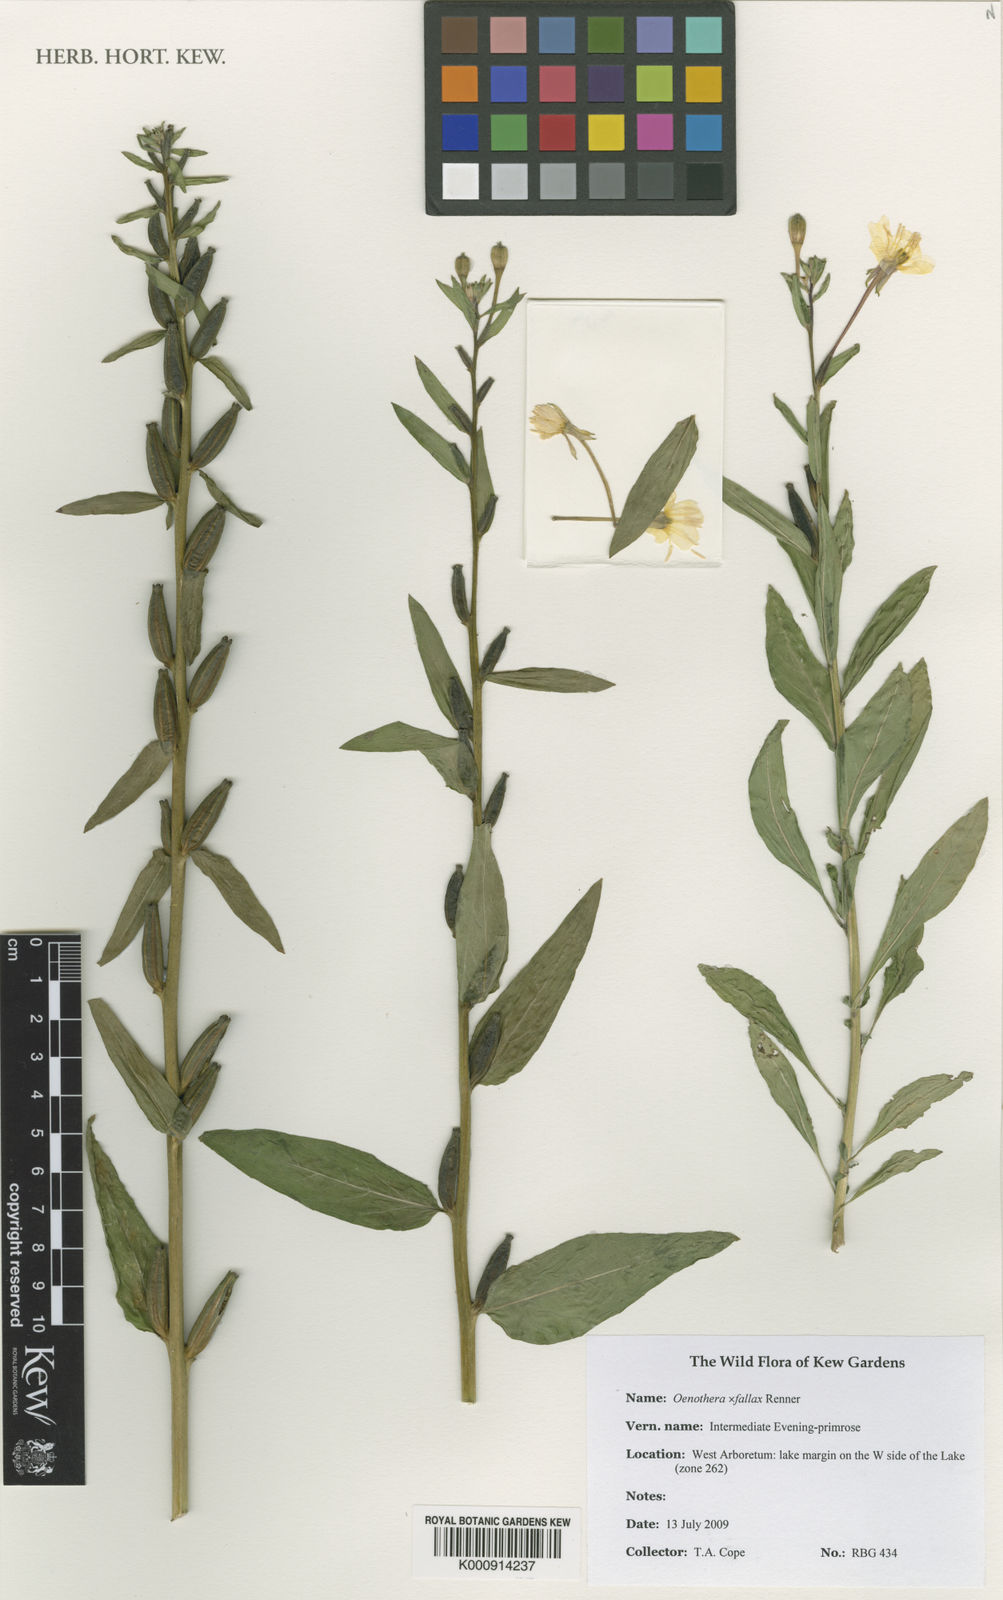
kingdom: Plantae
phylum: Tracheophyta
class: Magnoliopsida
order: Myrtales
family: Onagraceae
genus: Oenothera
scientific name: Oenothera fallax
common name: Intermediate evening-primrose
